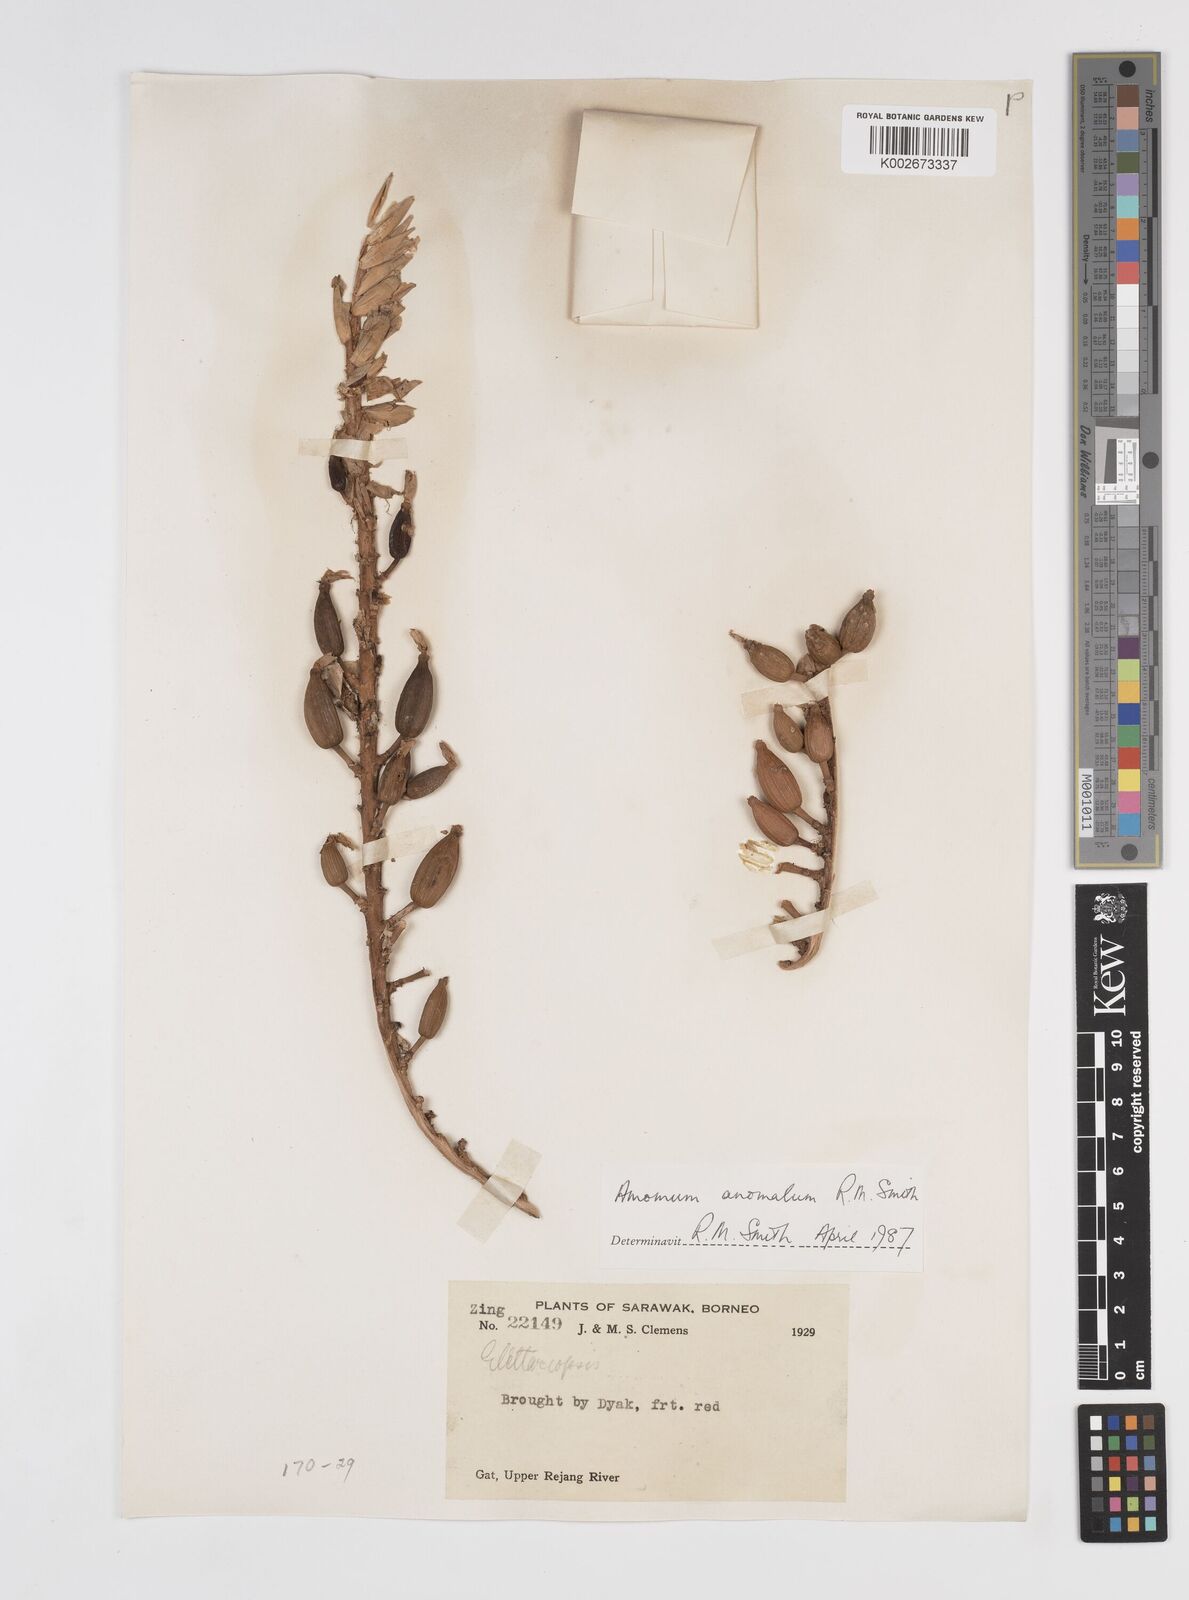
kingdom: Plantae
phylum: Tracheophyta
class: Liliopsida
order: Zingiberales
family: Zingiberaceae
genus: Sulettaria
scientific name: Sulettaria anomala
